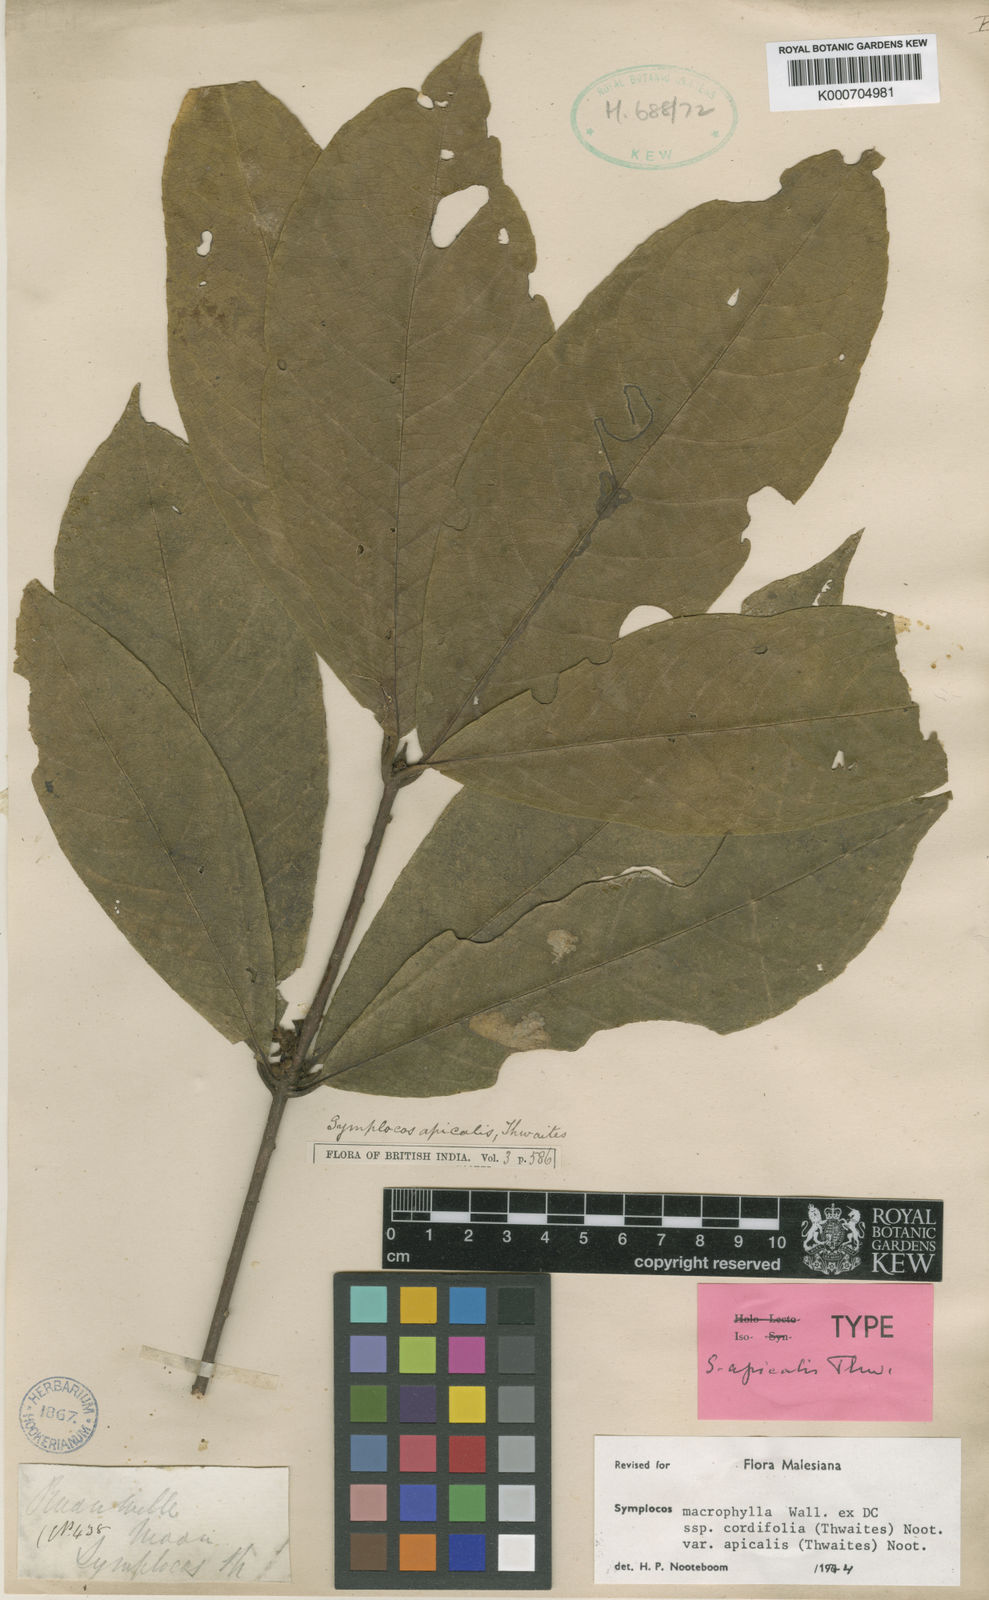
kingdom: Plantae
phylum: Tracheophyta
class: Magnoliopsida
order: Ericales
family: Symplocaceae
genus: Symplocos
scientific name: Symplocos
